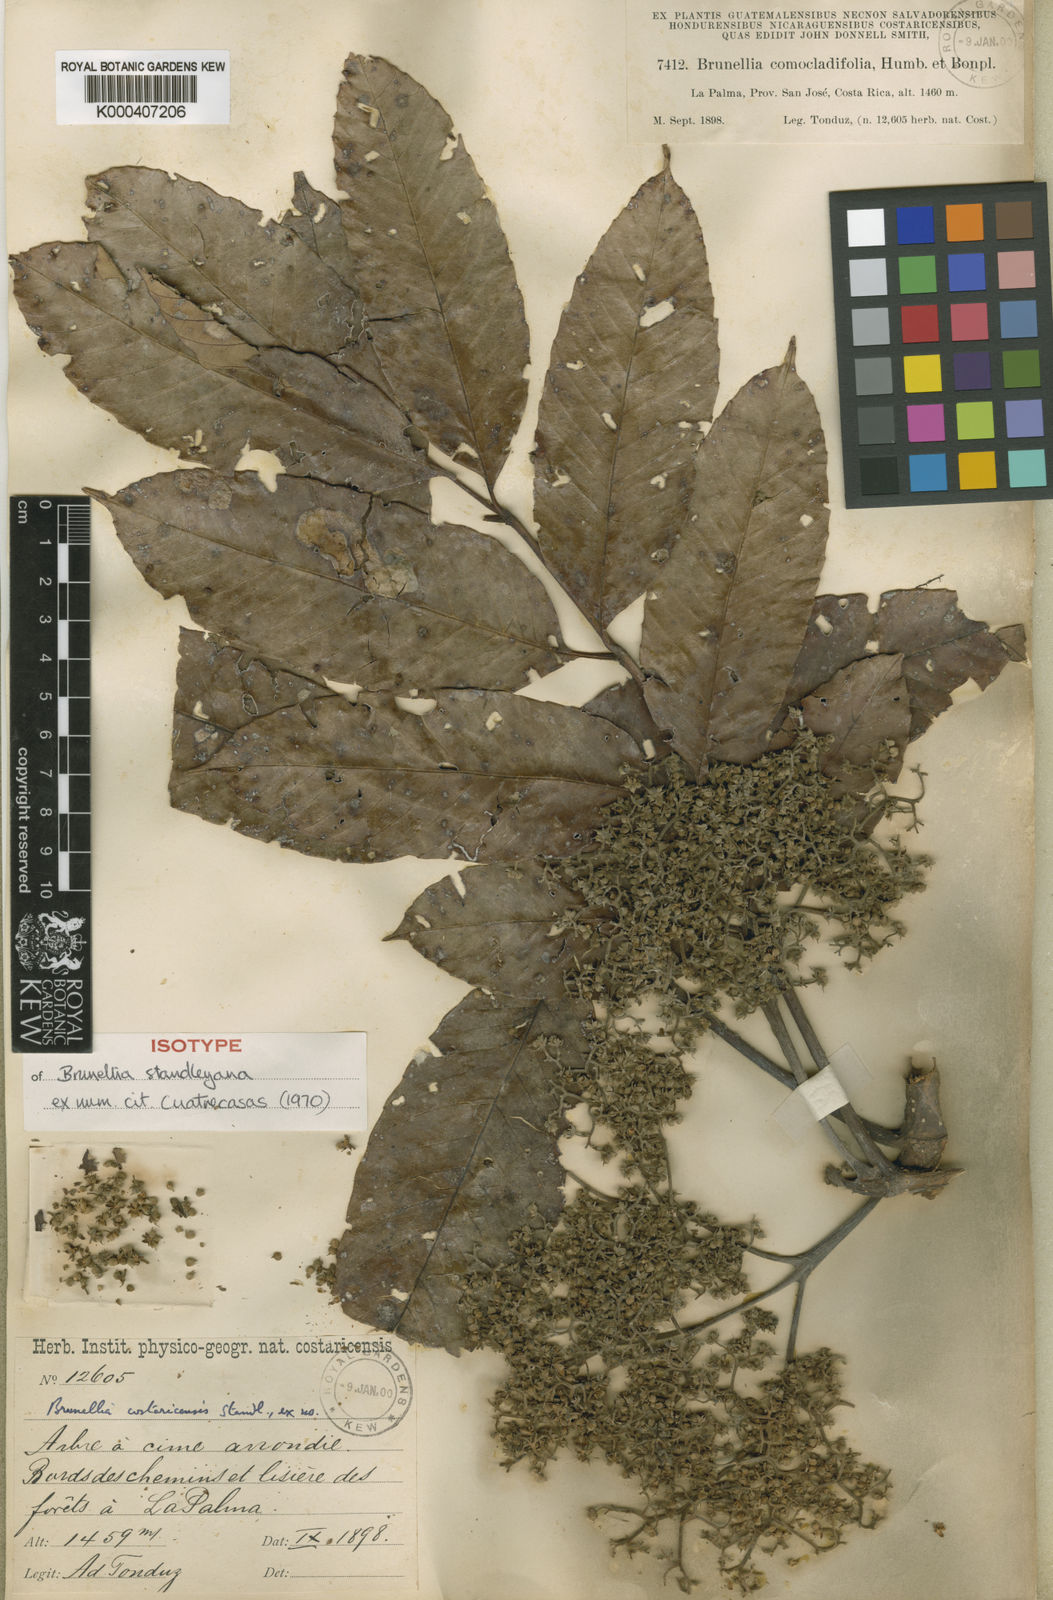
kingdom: Plantae
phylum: Tracheophyta
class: Magnoliopsida
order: Oxalidales
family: Brunelliaceae
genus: Brunellia
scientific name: Brunellia standleyana
